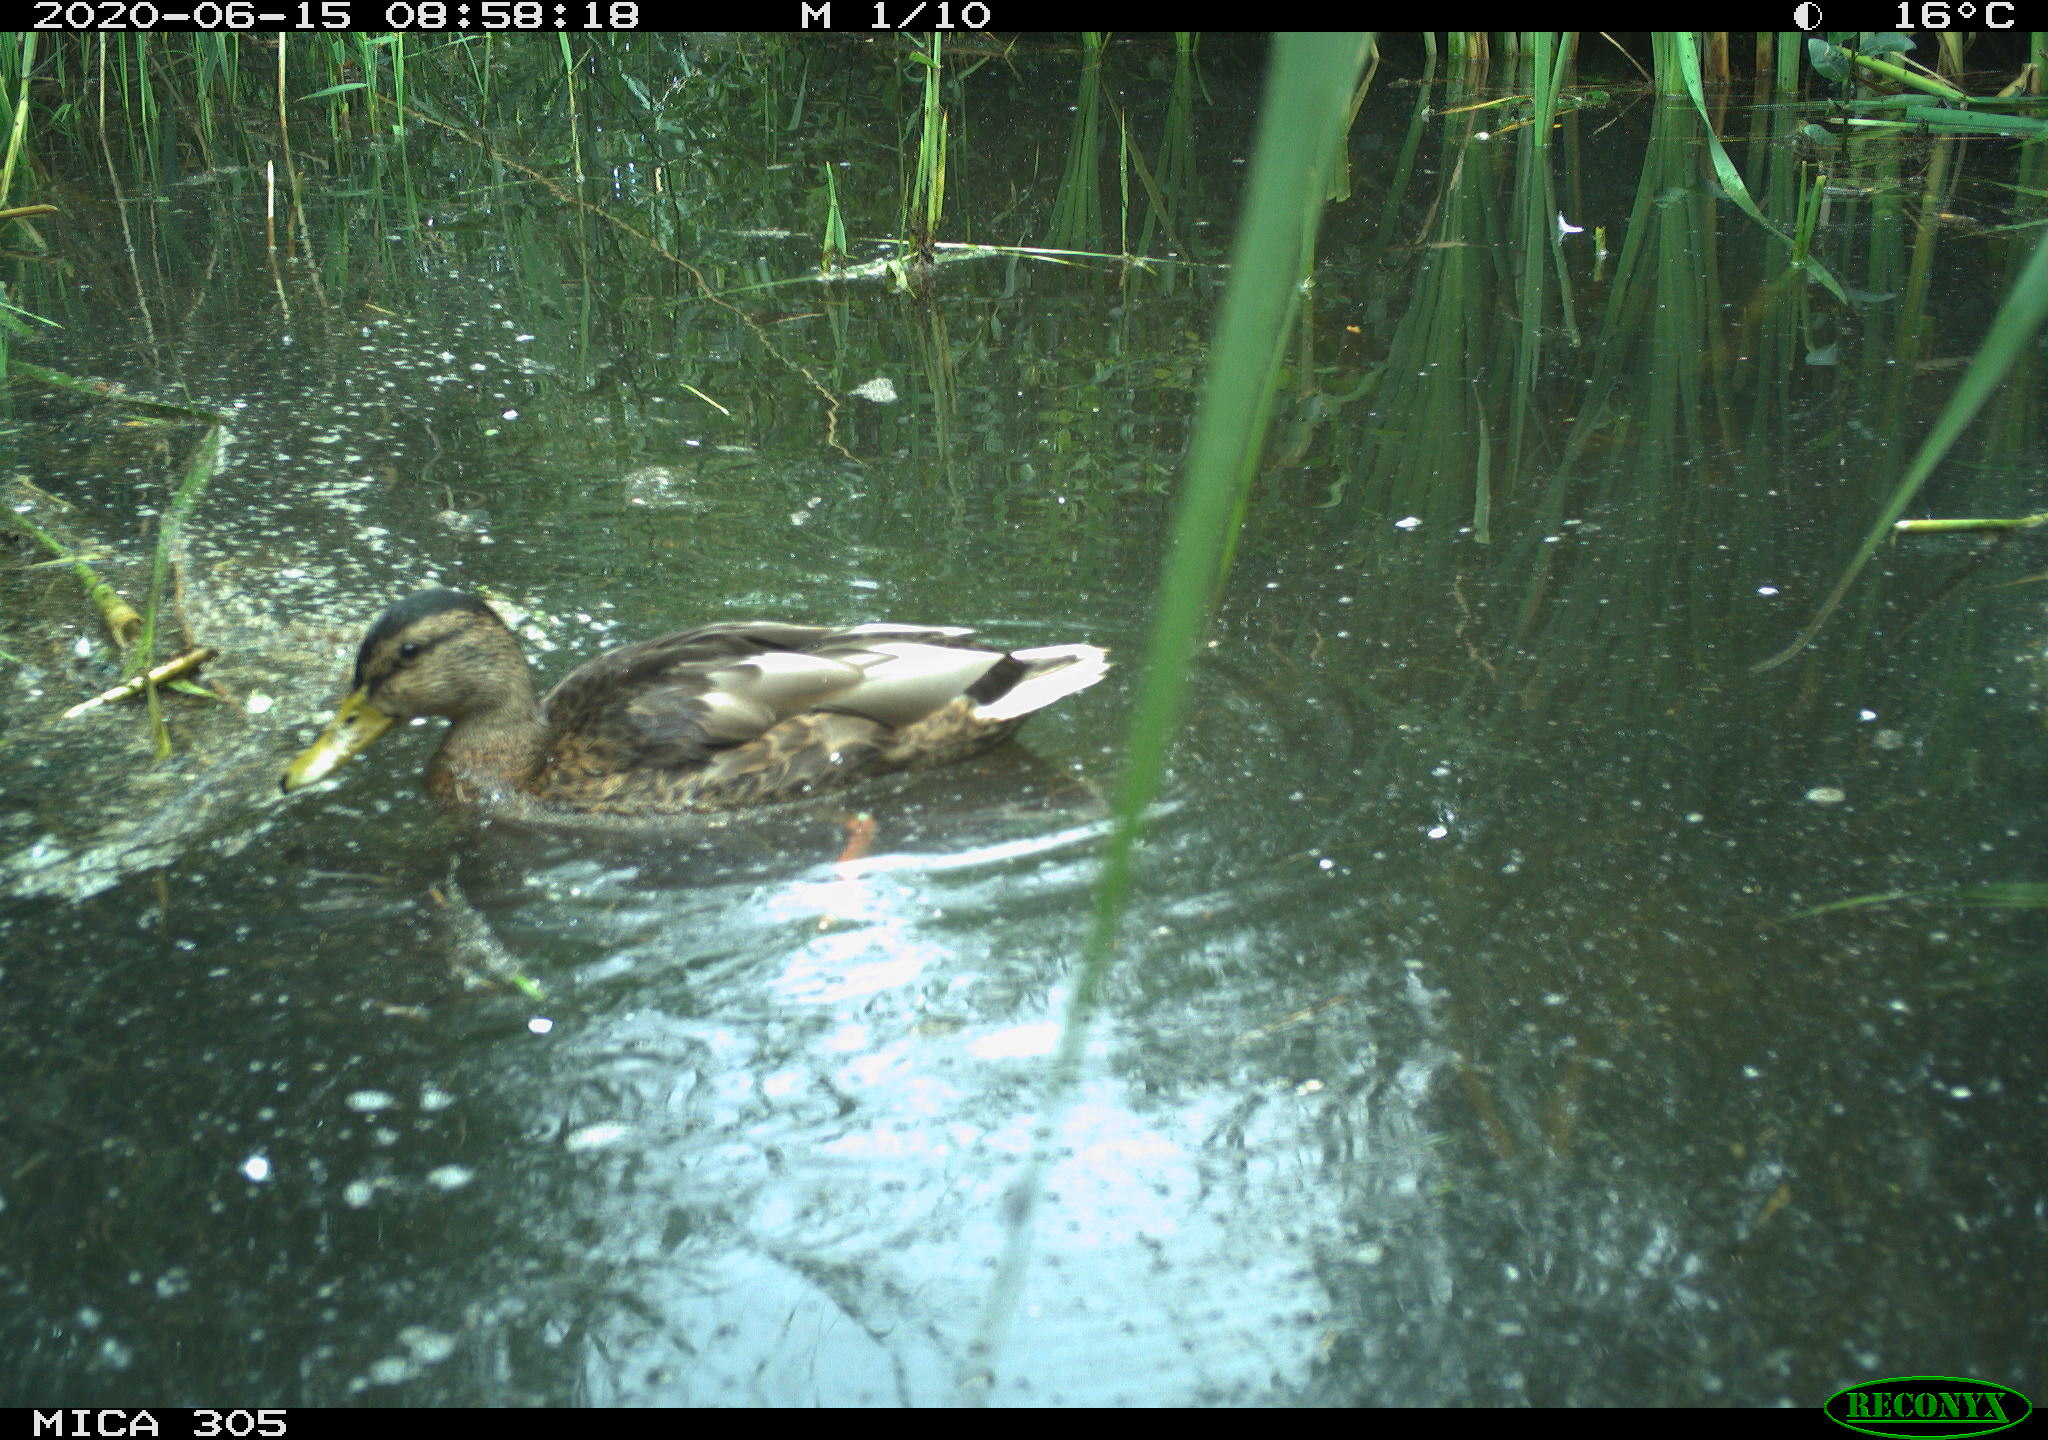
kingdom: Animalia
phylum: Chordata
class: Aves
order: Anseriformes
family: Anatidae
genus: Anas
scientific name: Anas platyrhynchos
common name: Mallard
